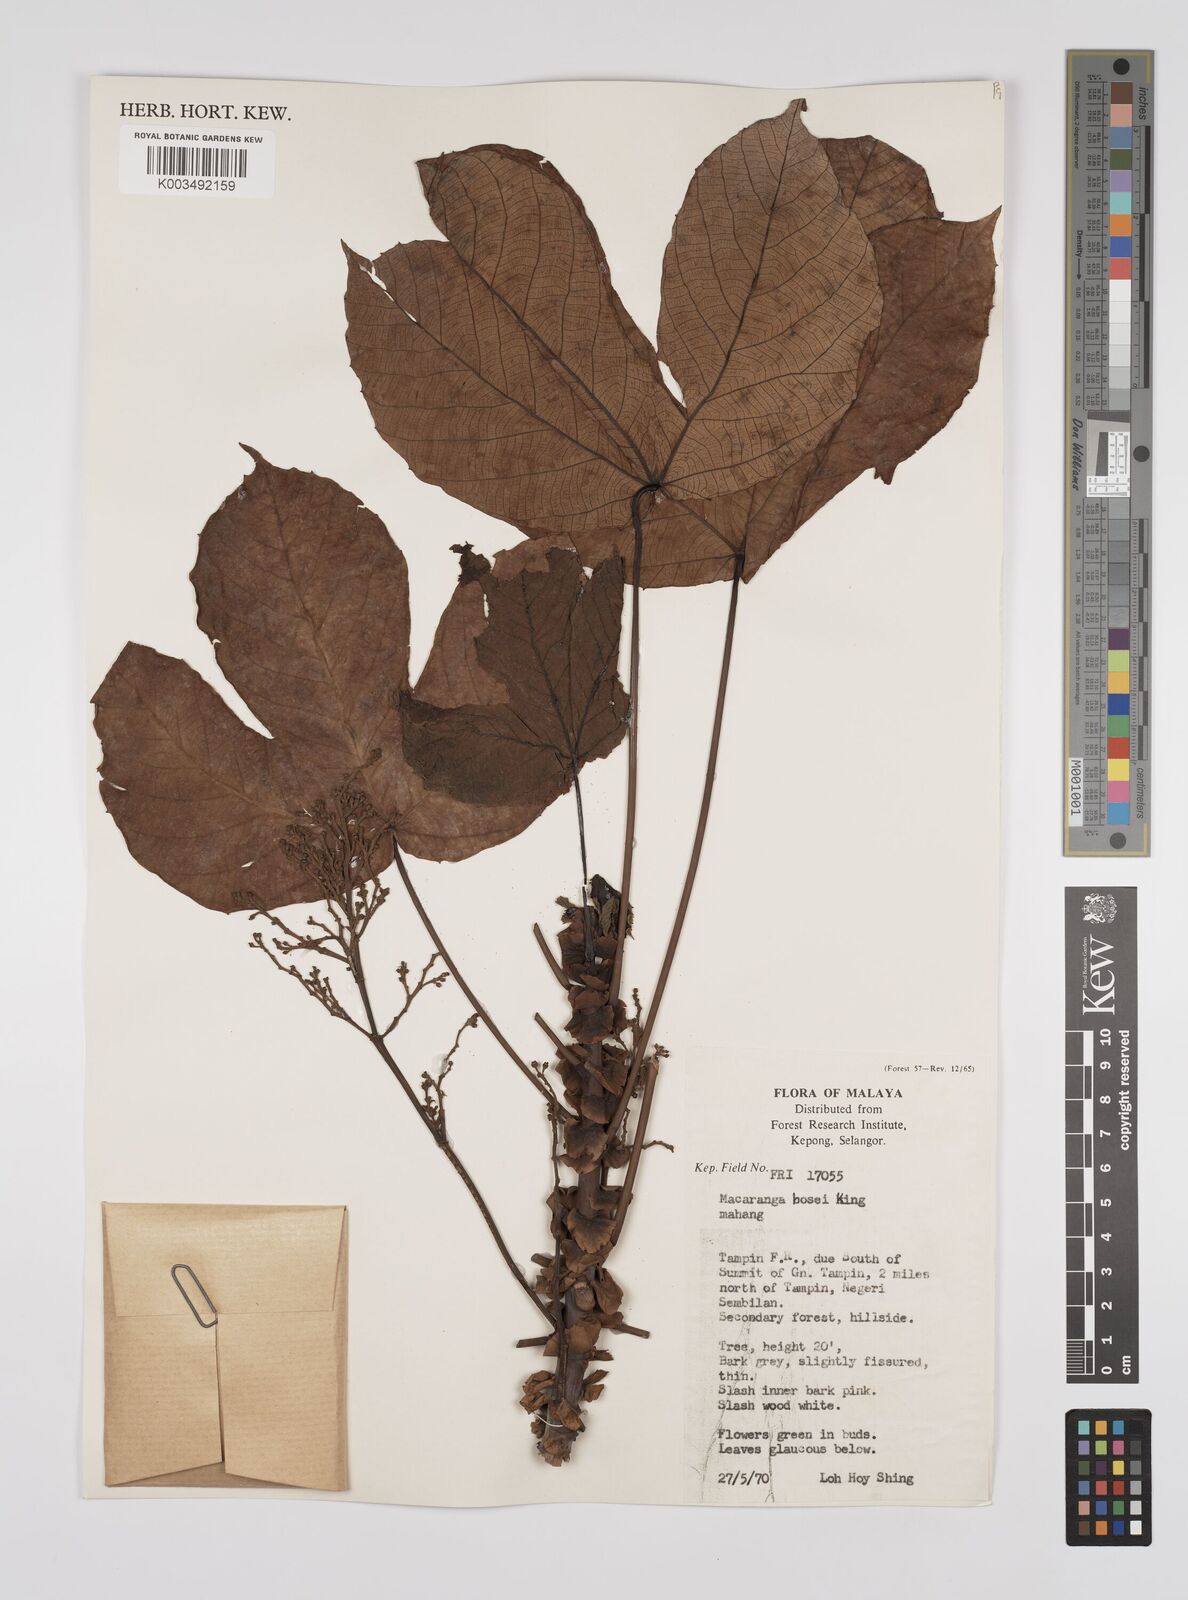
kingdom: Plantae
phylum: Tracheophyta
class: Magnoliopsida
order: Malpighiales
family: Euphorbiaceae
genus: Macaranga
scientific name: Macaranga hosei
